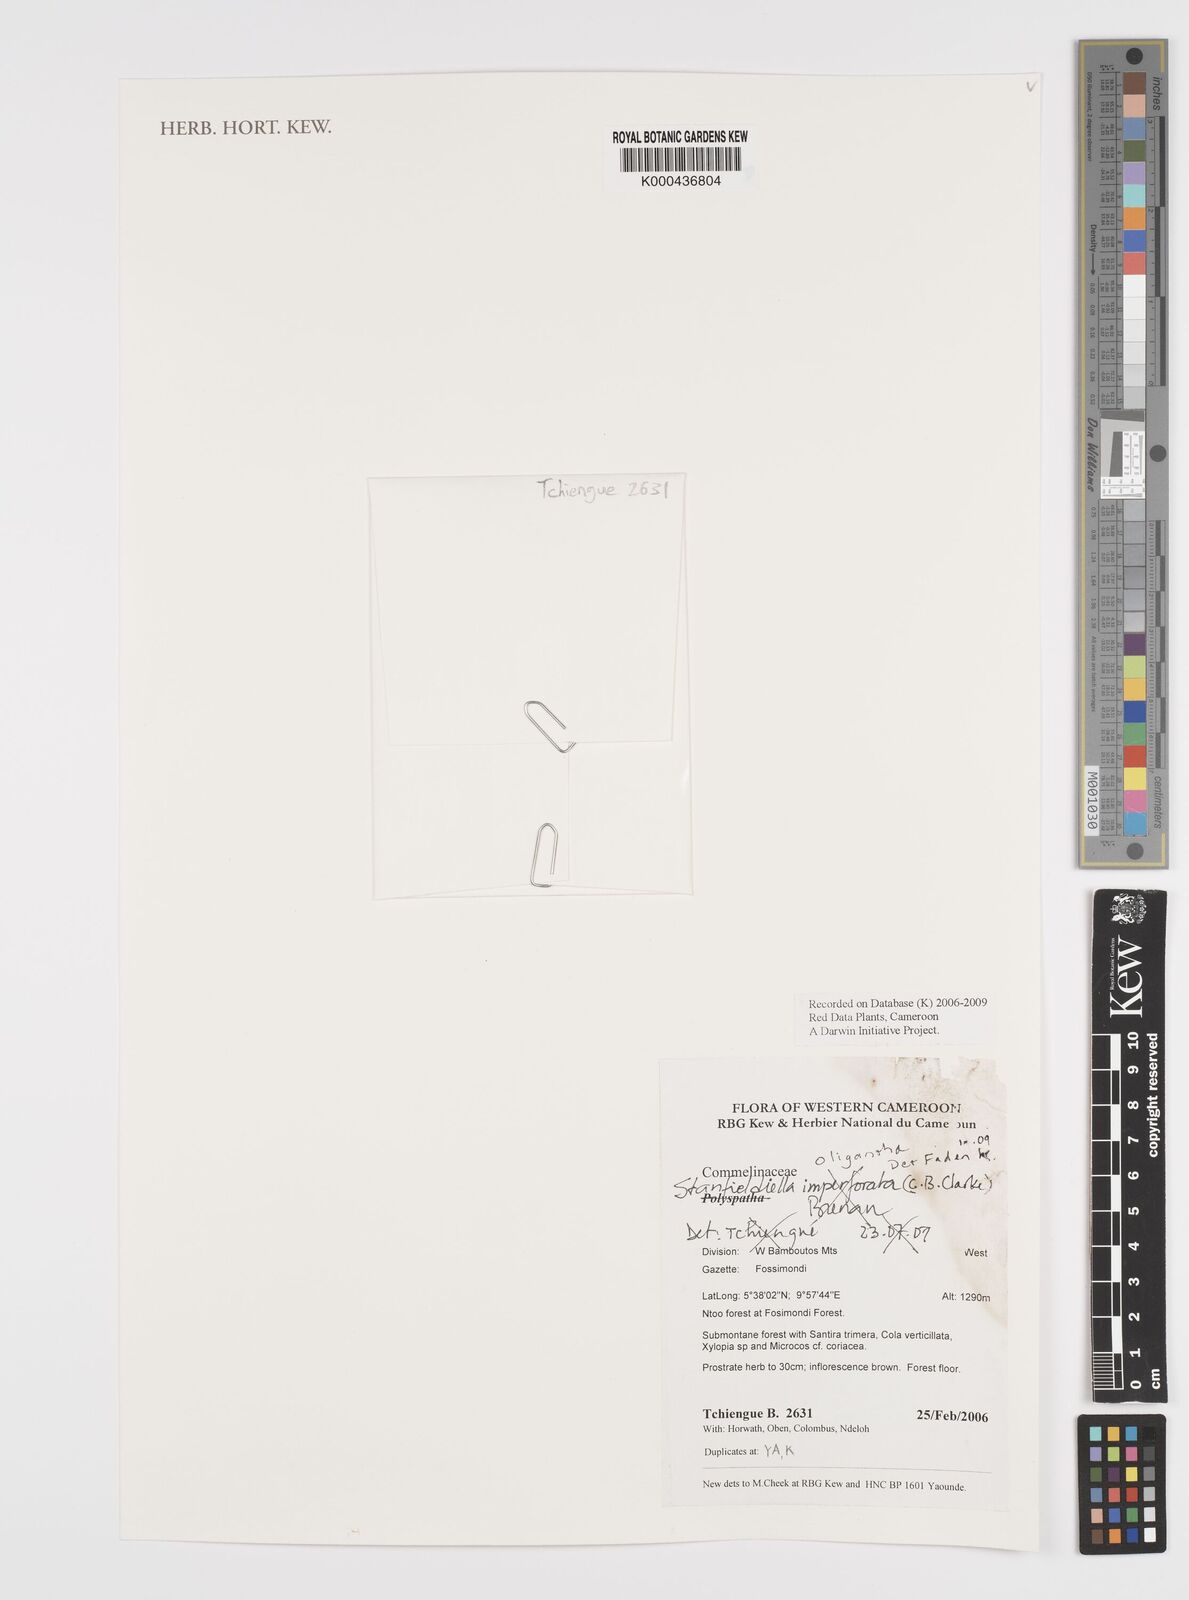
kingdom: Plantae
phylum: Tracheophyta
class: Liliopsida
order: Commelinales
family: Commelinaceae
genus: Stanfieldiella
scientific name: Stanfieldiella oligantha
